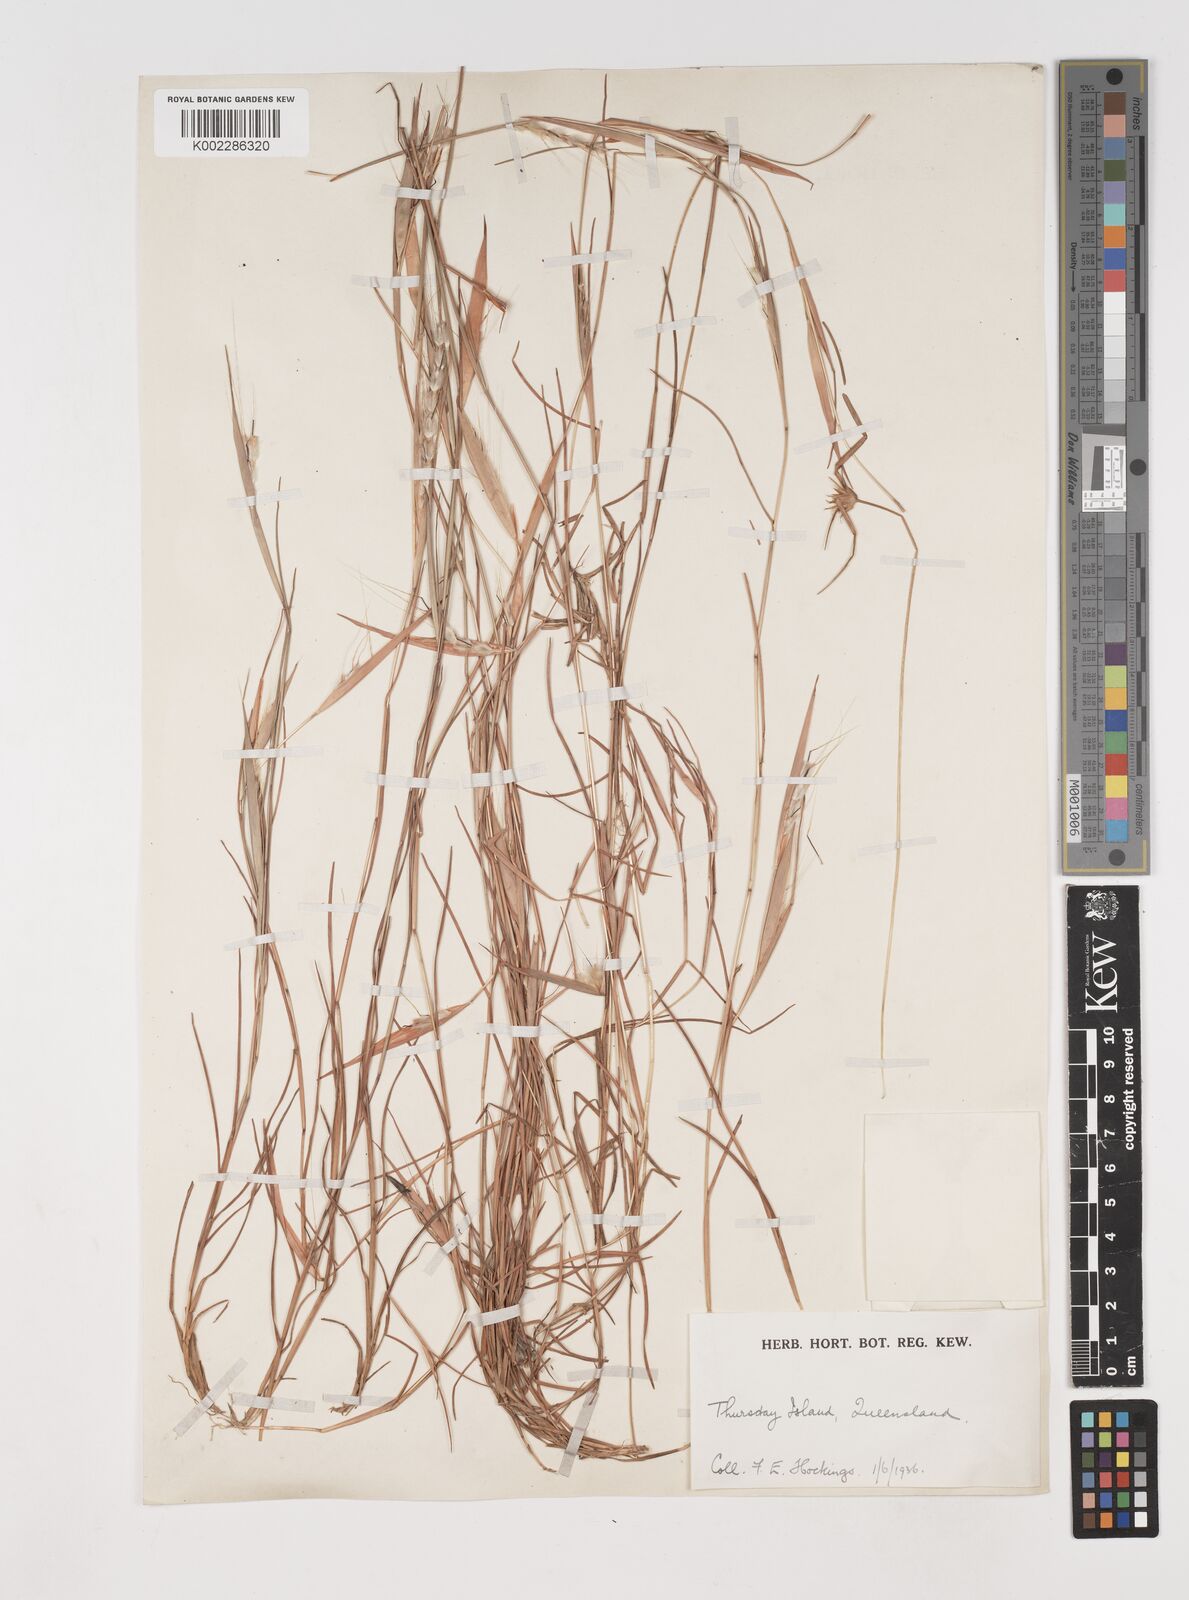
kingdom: Plantae
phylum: Tracheophyta
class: Liliopsida
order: Poales
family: Poaceae
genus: Schizachyrium
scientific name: Schizachyrium
